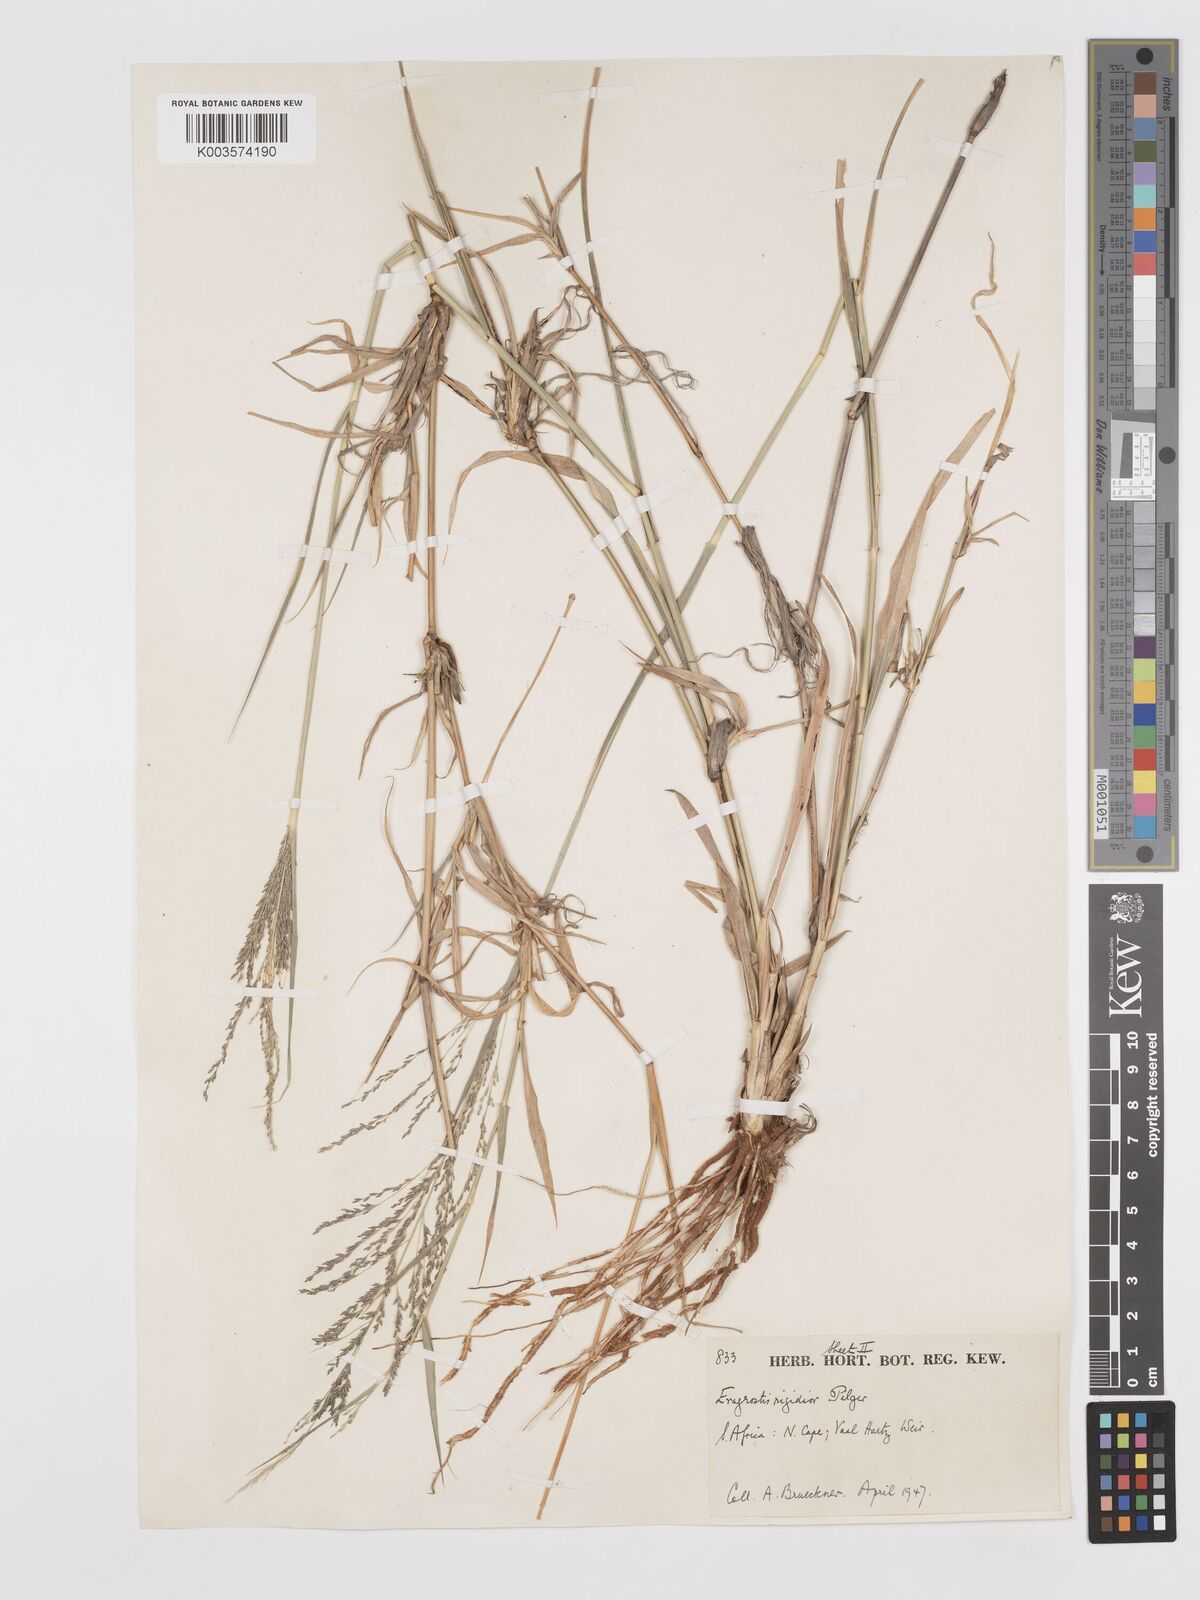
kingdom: Plantae
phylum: Tracheophyta
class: Liliopsida
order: Poales
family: Poaceae
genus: Eragrostis
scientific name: Eragrostis cylindriflora
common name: Cylinderflower lovegrass
